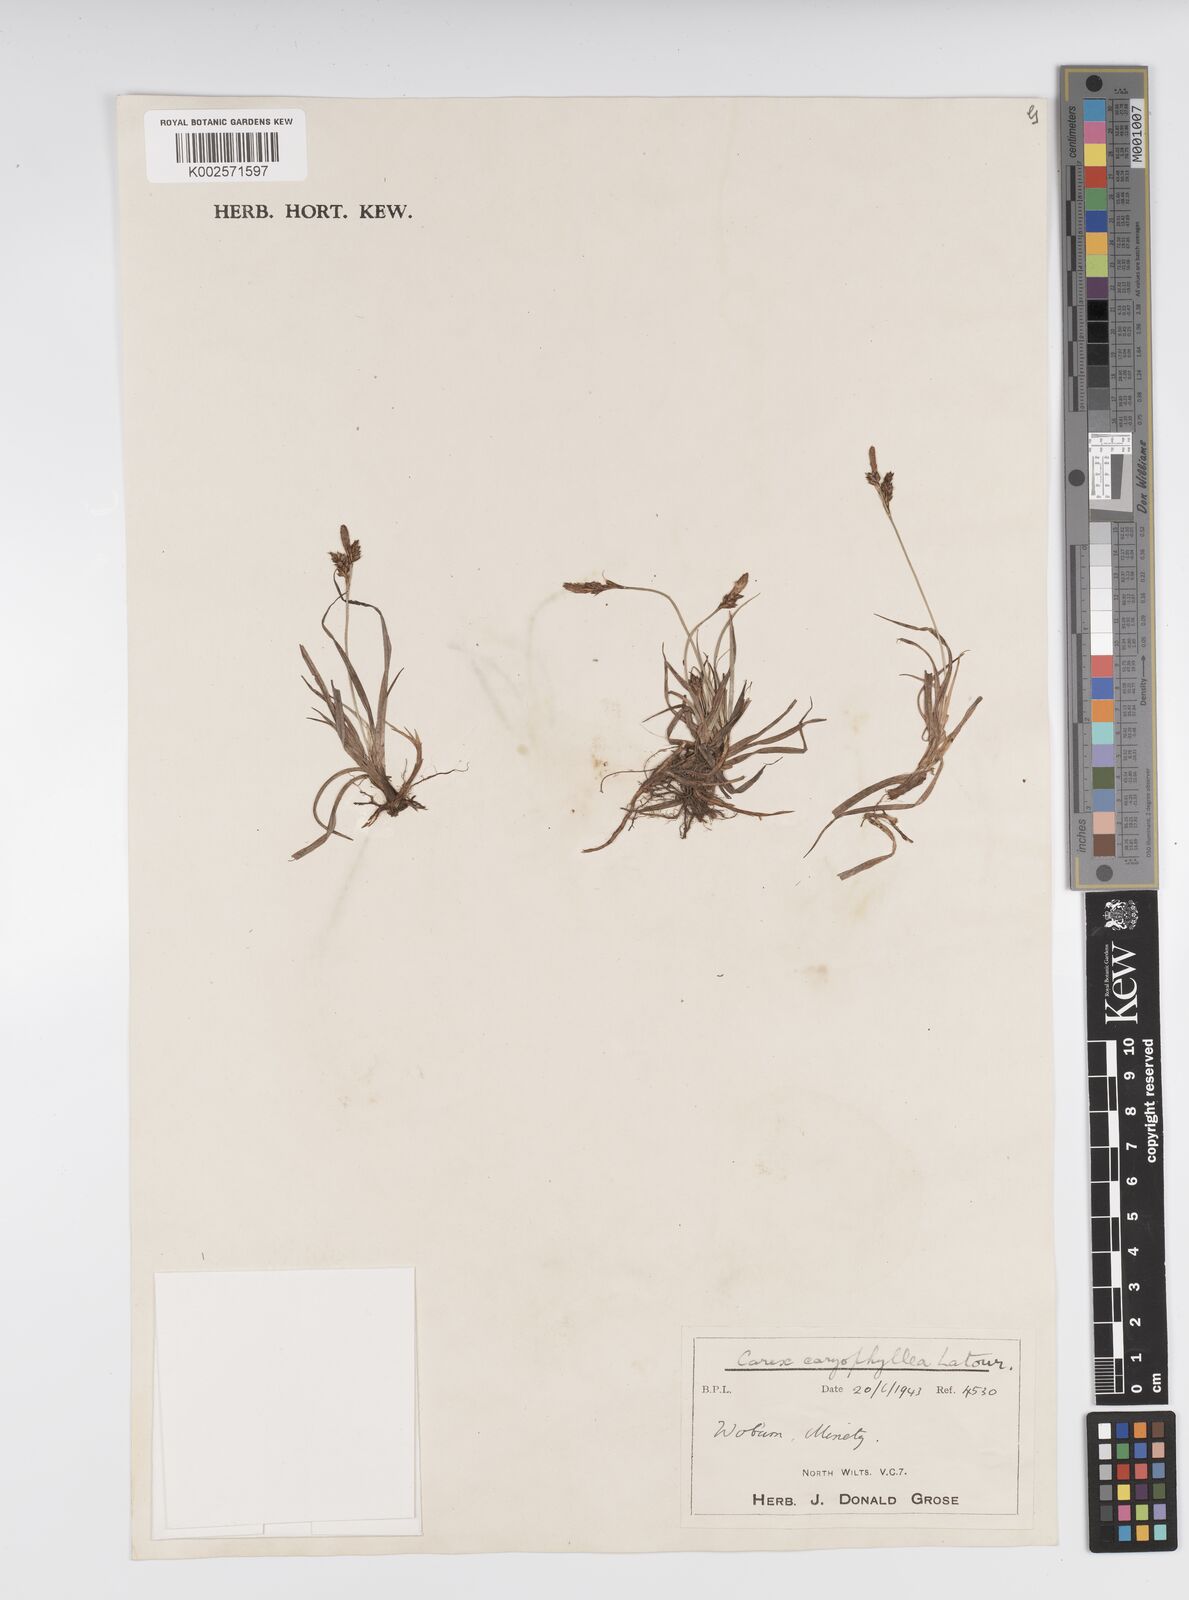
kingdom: Plantae
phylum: Tracheophyta
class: Liliopsida
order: Poales
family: Cyperaceae
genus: Carex
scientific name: Carex caryophyllea
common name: Spring sedge
